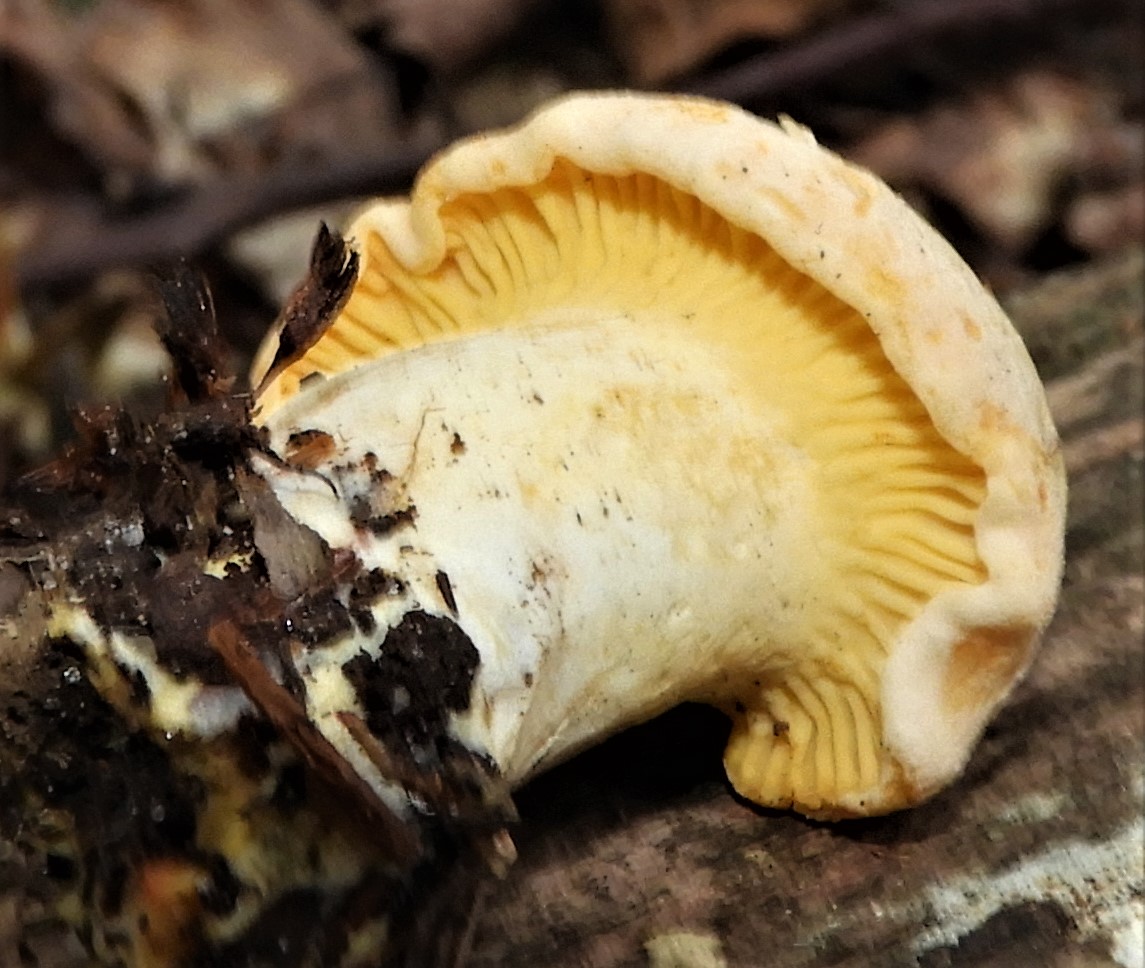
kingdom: Fungi
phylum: Basidiomycota
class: Agaricomycetes
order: Cantharellales
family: Hydnaceae
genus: Cantharellus
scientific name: Cantharellus pallens
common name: bleg kantarel
